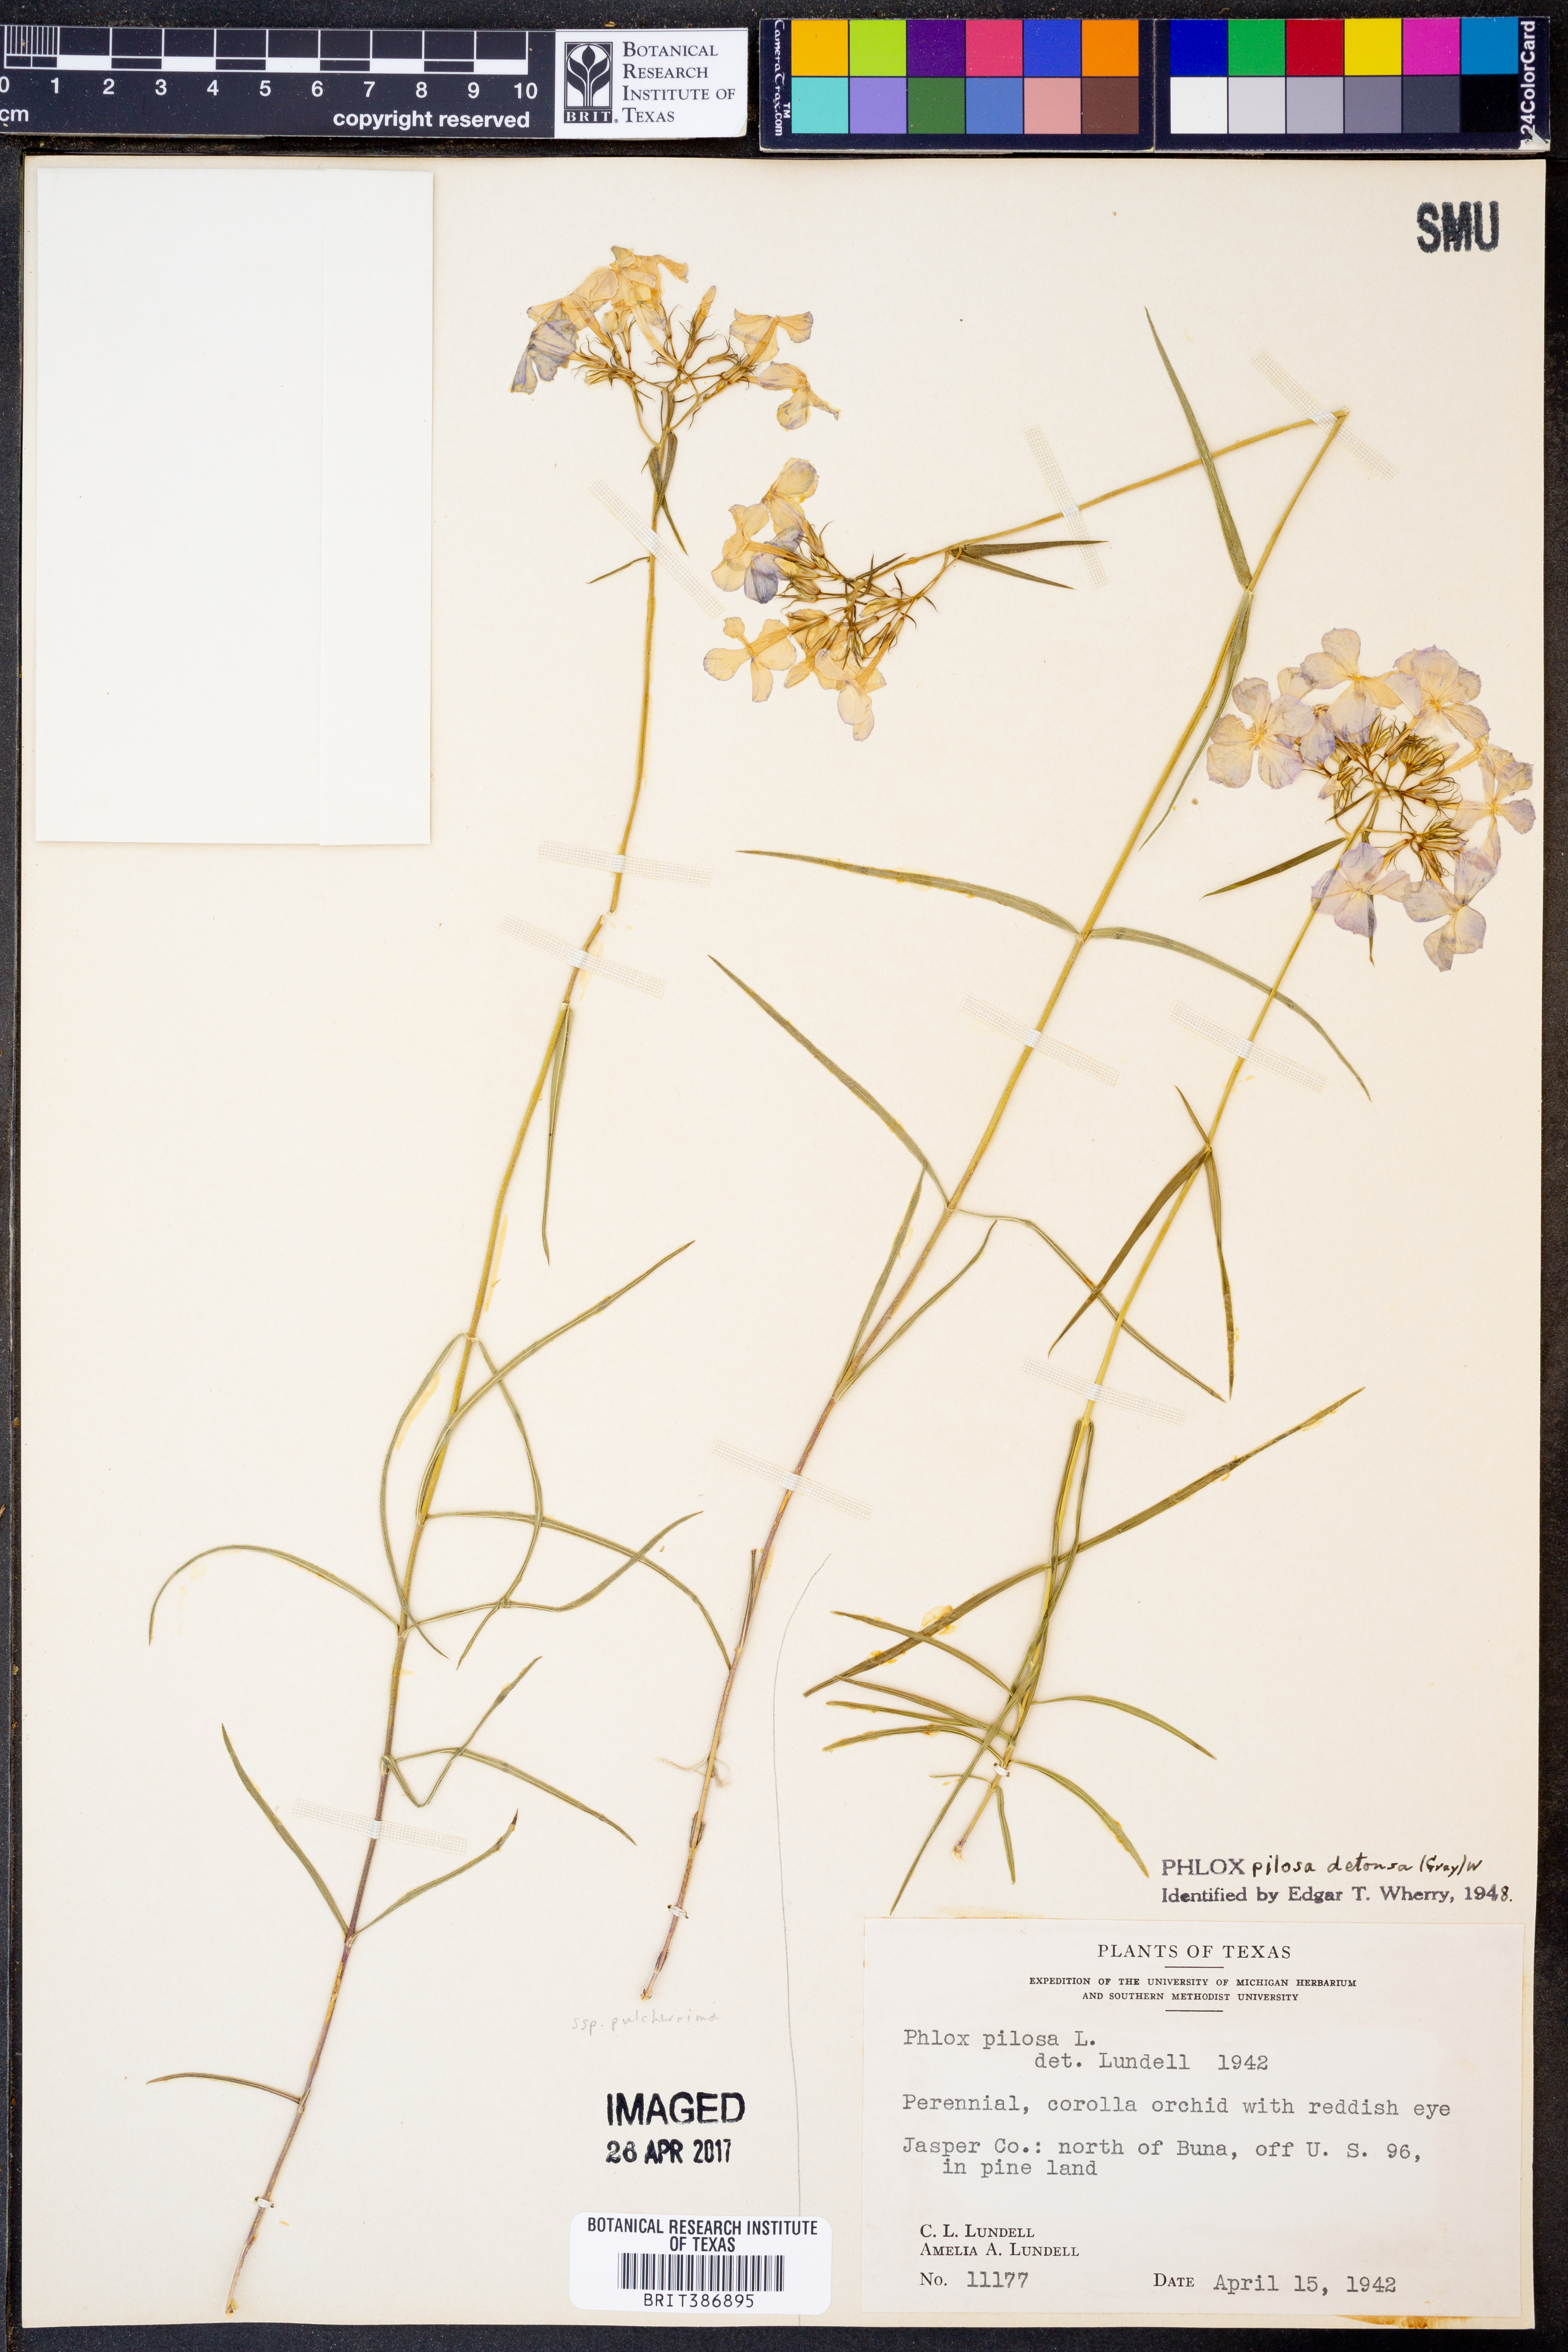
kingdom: Plantae
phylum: Tracheophyta
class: Magnoliopsida
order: Ericales
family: Polemoniaceae
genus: Phlox
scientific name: Phlox pilosa
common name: Prairie phlox
